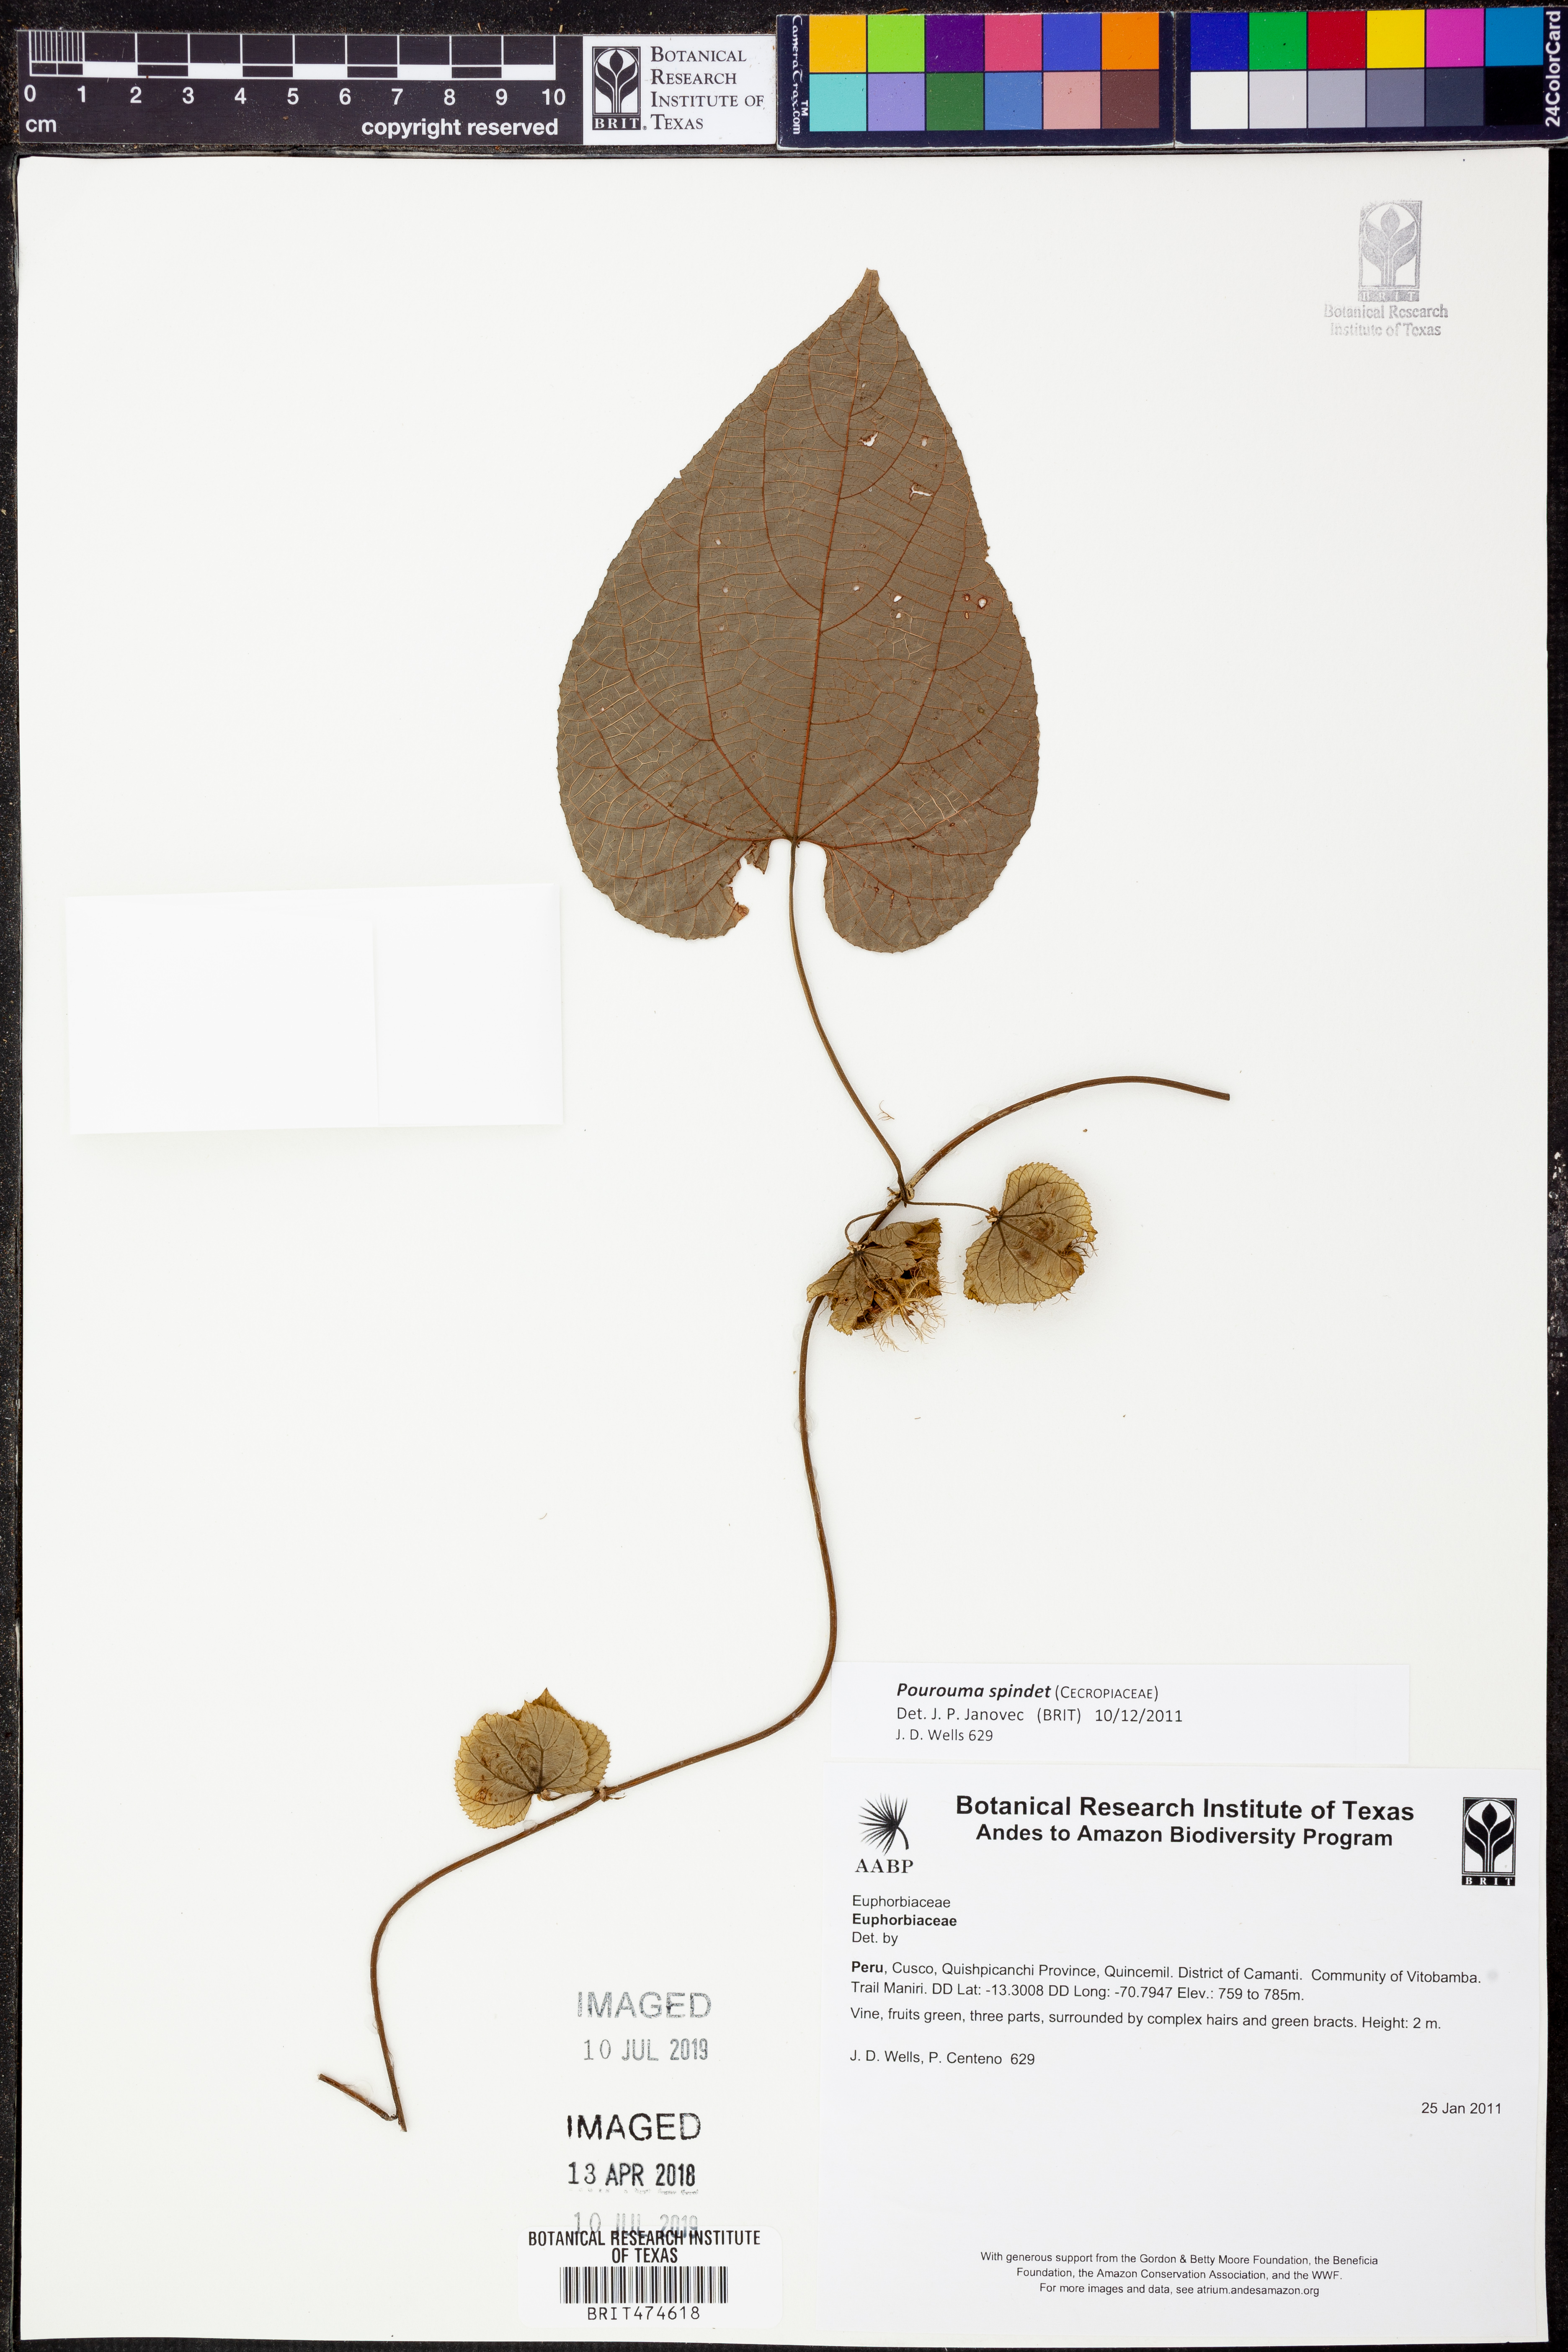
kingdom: Plantae
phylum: Tracheophyta
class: Magnoliopsida
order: Rosales
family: Urticaceae
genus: Pourouma
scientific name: Pourouma
